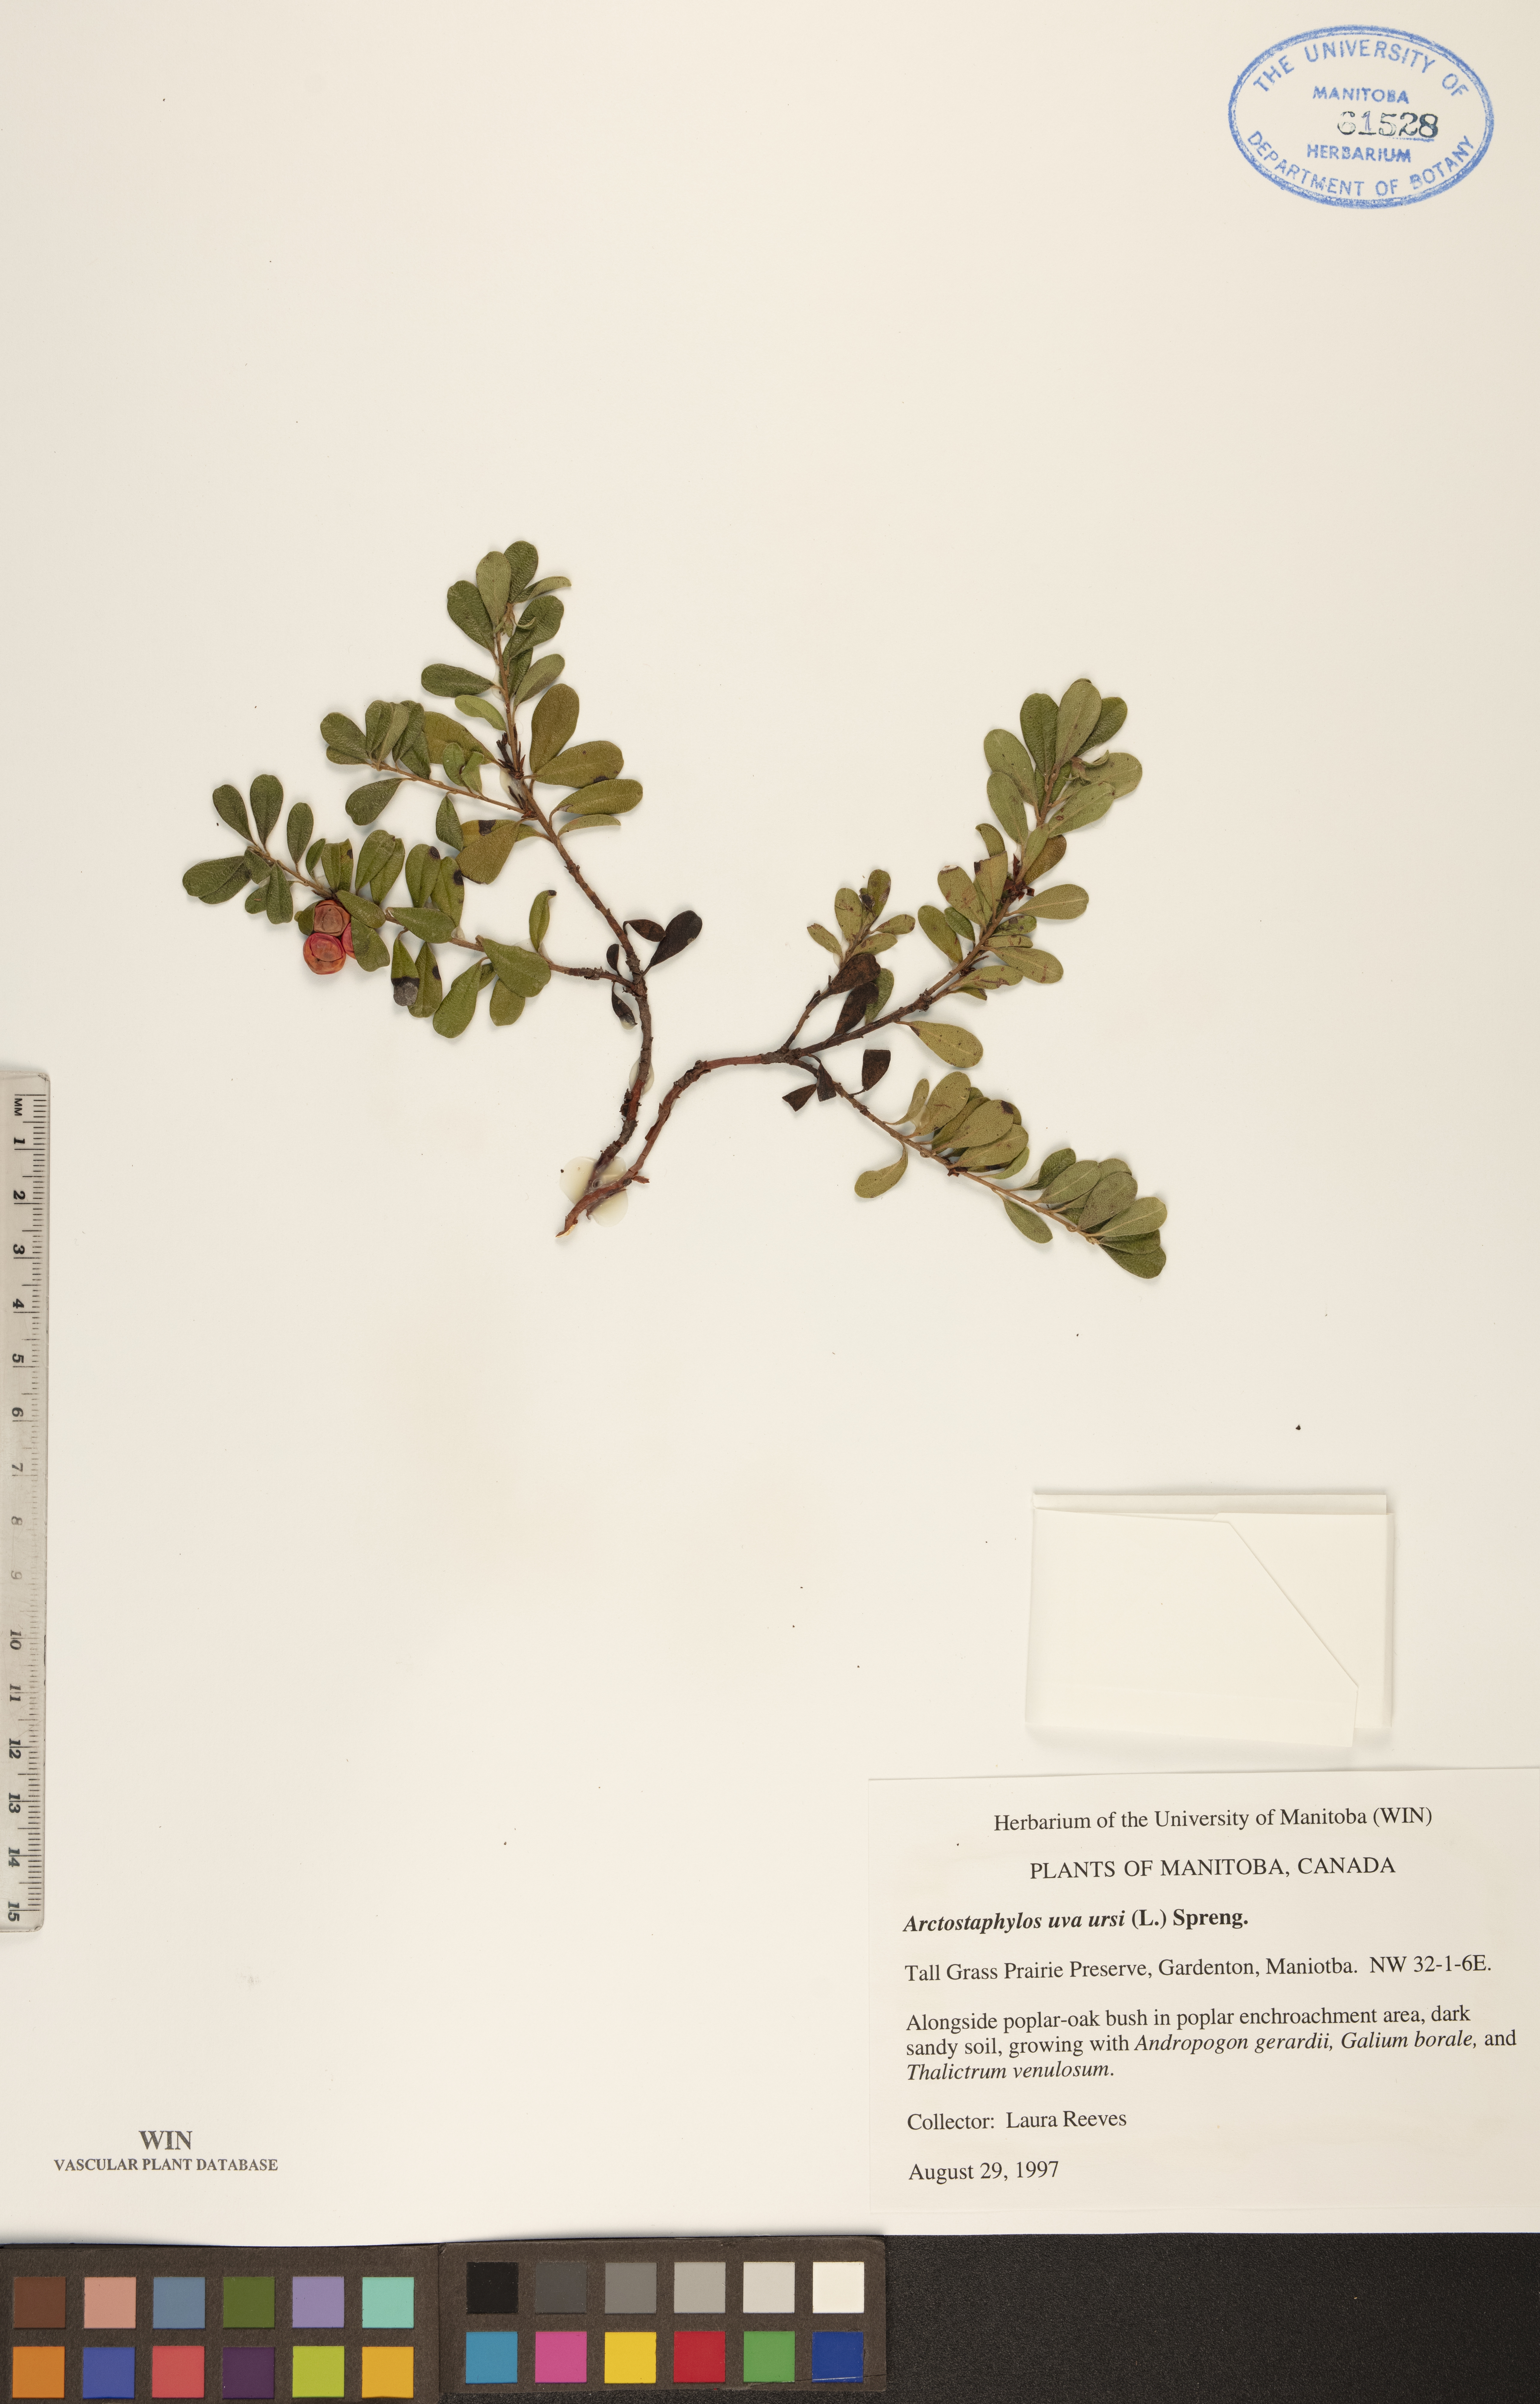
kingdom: Plantae
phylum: Tracheophyta
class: Magnoliopsida
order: Ericales
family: Ericaceae
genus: Arctostaphylos
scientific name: Arctostaphylos uva-ursi
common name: Bearberry
